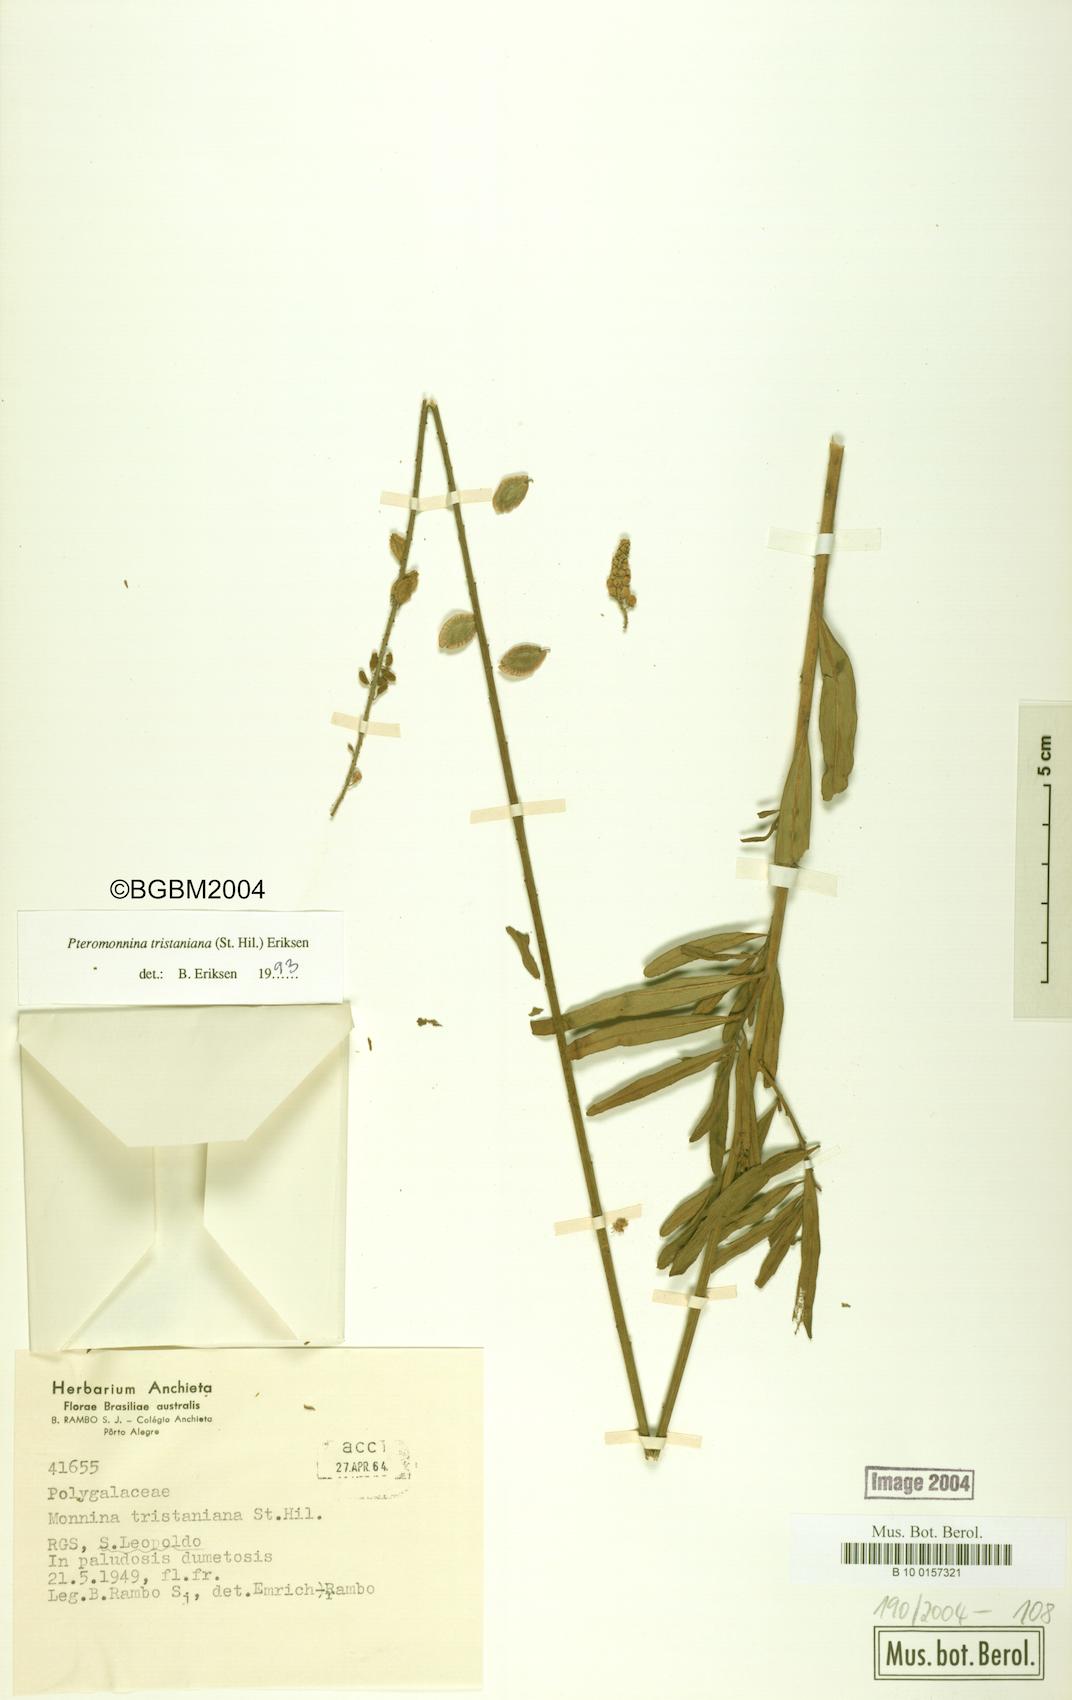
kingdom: Plantae
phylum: Tracheophyta
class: Magnoliopsida
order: Fabales
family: Polygalaceae
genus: Monnina
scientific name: Monnina tristaniana
